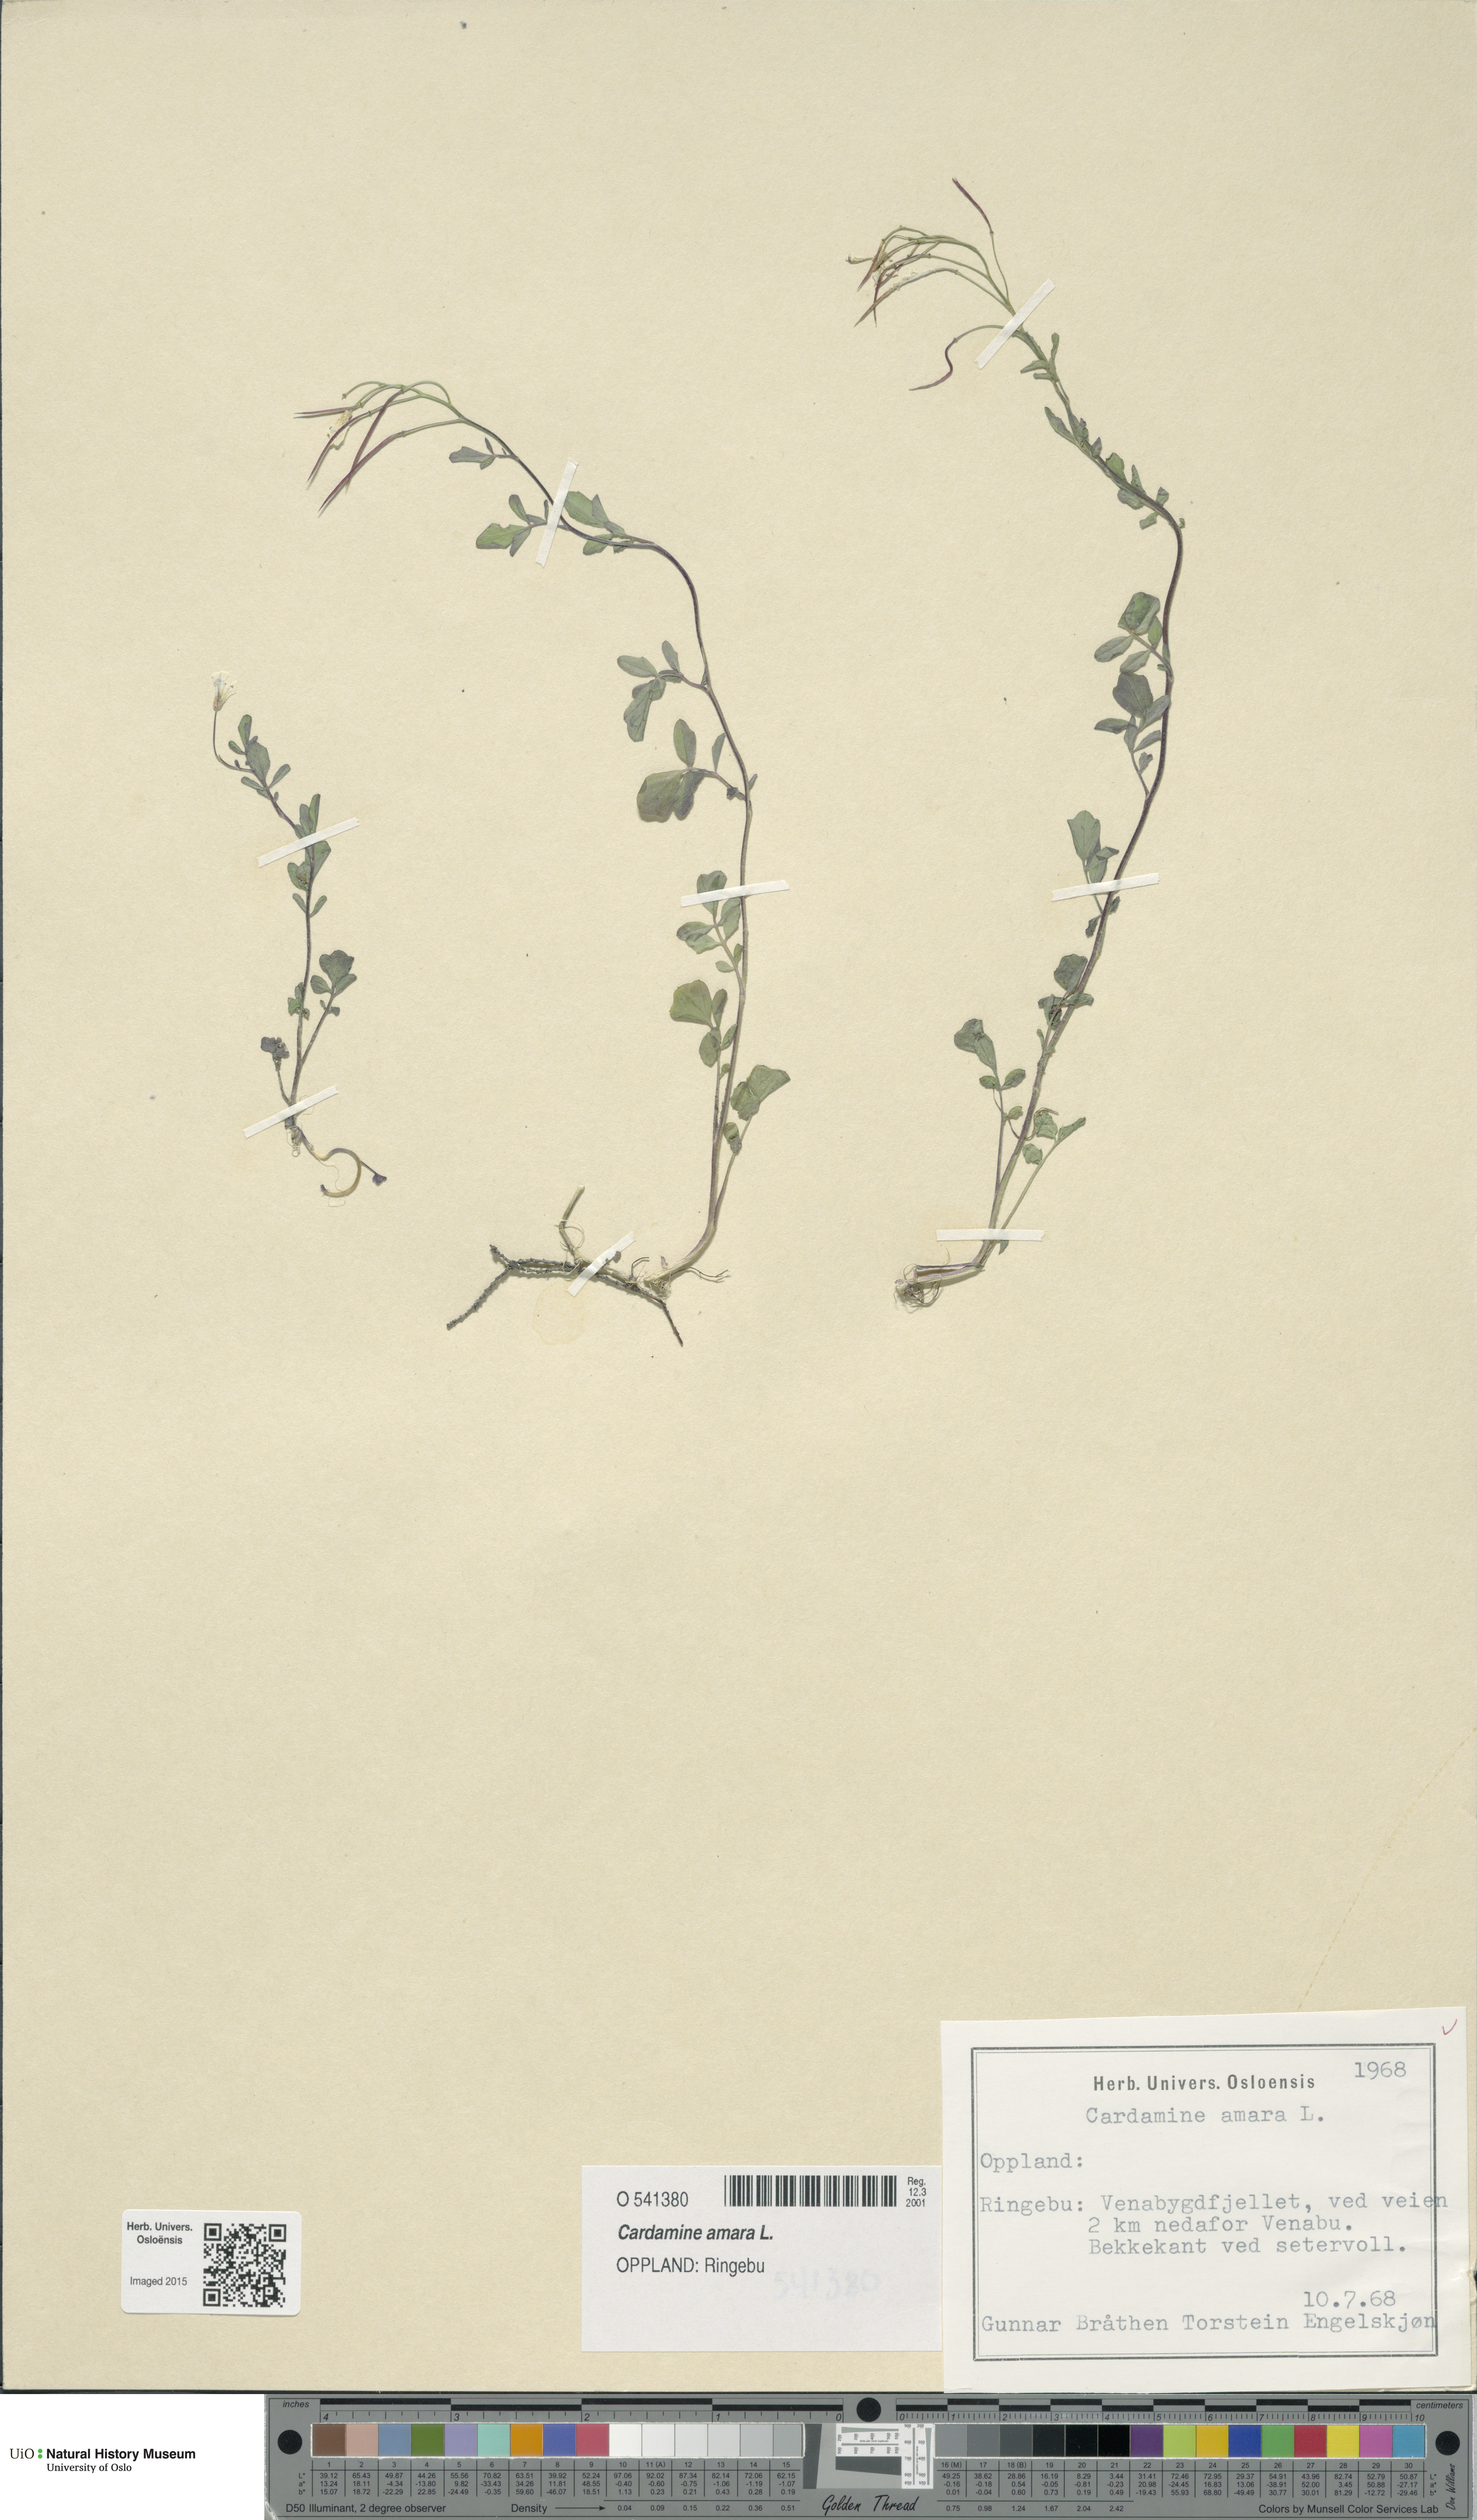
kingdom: Plantae
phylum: Tracheophyta
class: Magnoliopsida
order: Brassicales
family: Brassicaceae
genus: Cardamine
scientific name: Cardamine amara
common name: Large bitter-cress
